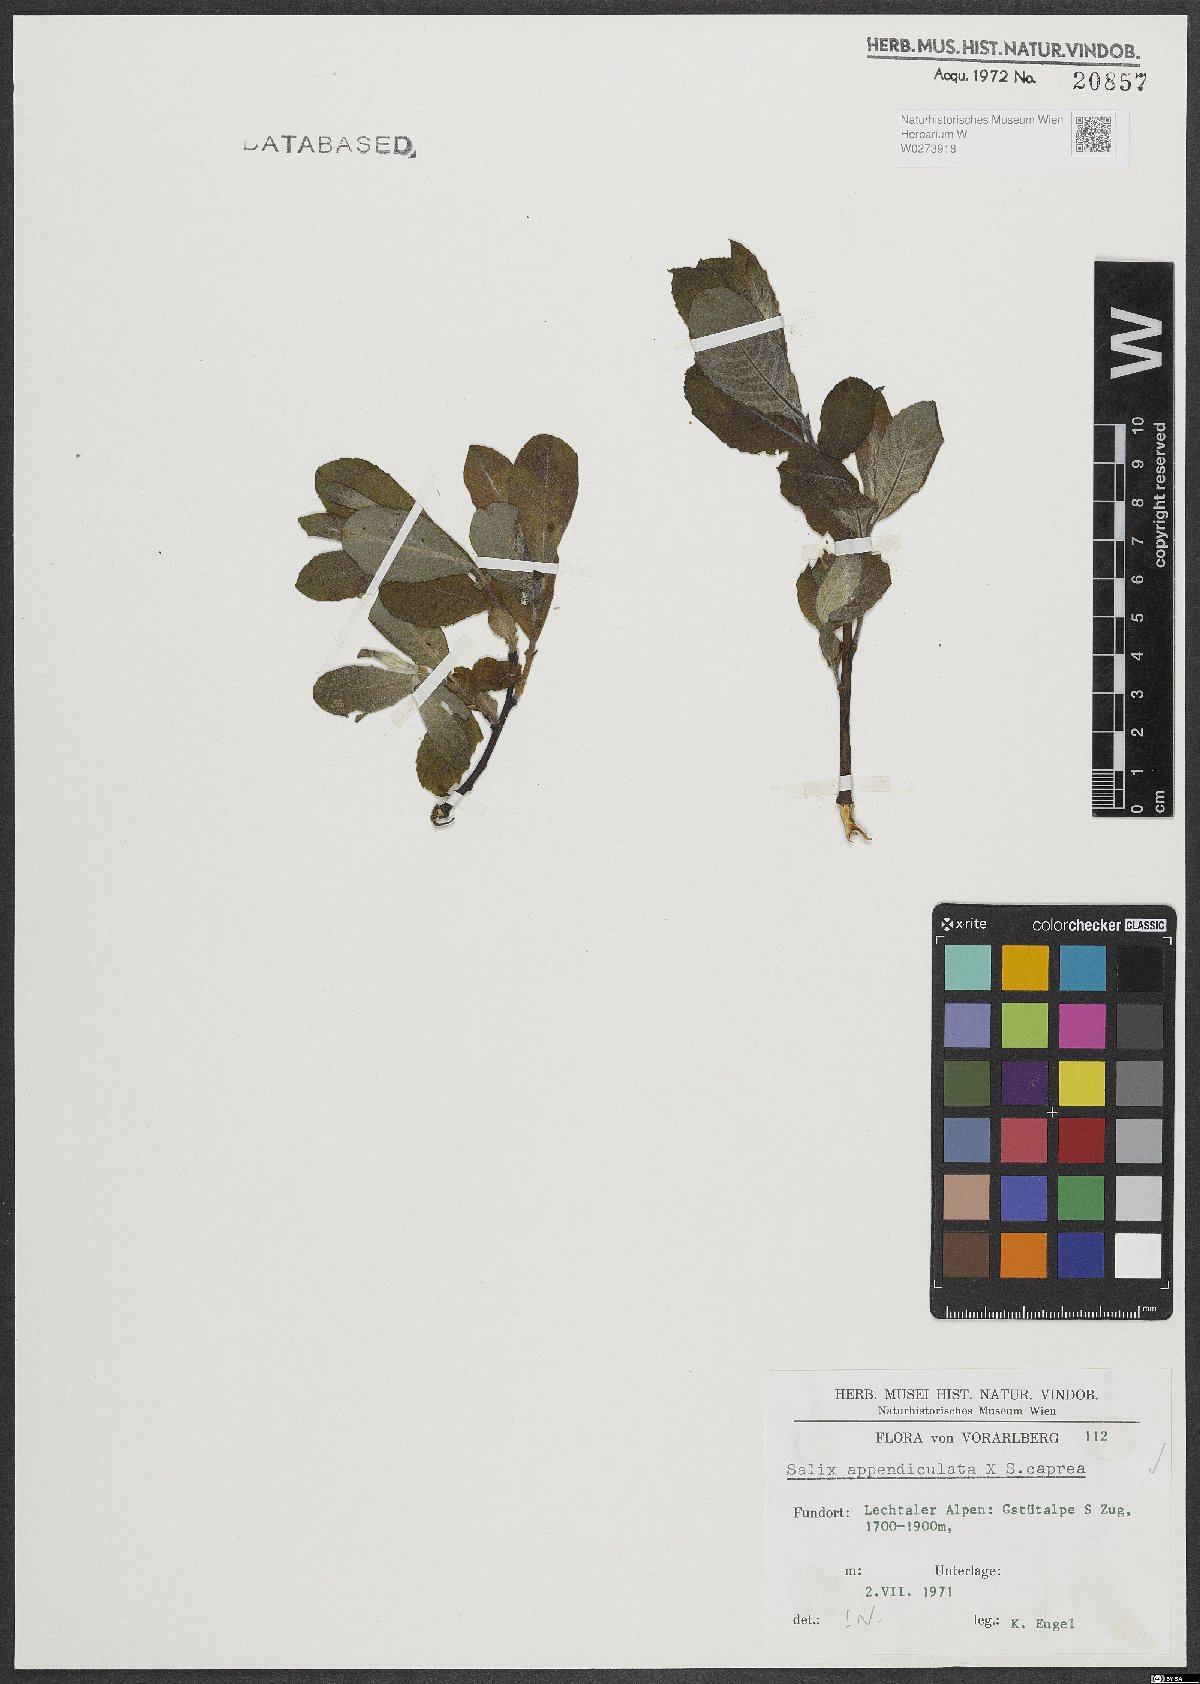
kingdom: Plantae
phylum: Tracheophyta
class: Magnoliopsida
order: Malpighiales
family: Salicaceae
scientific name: Salicaceae
